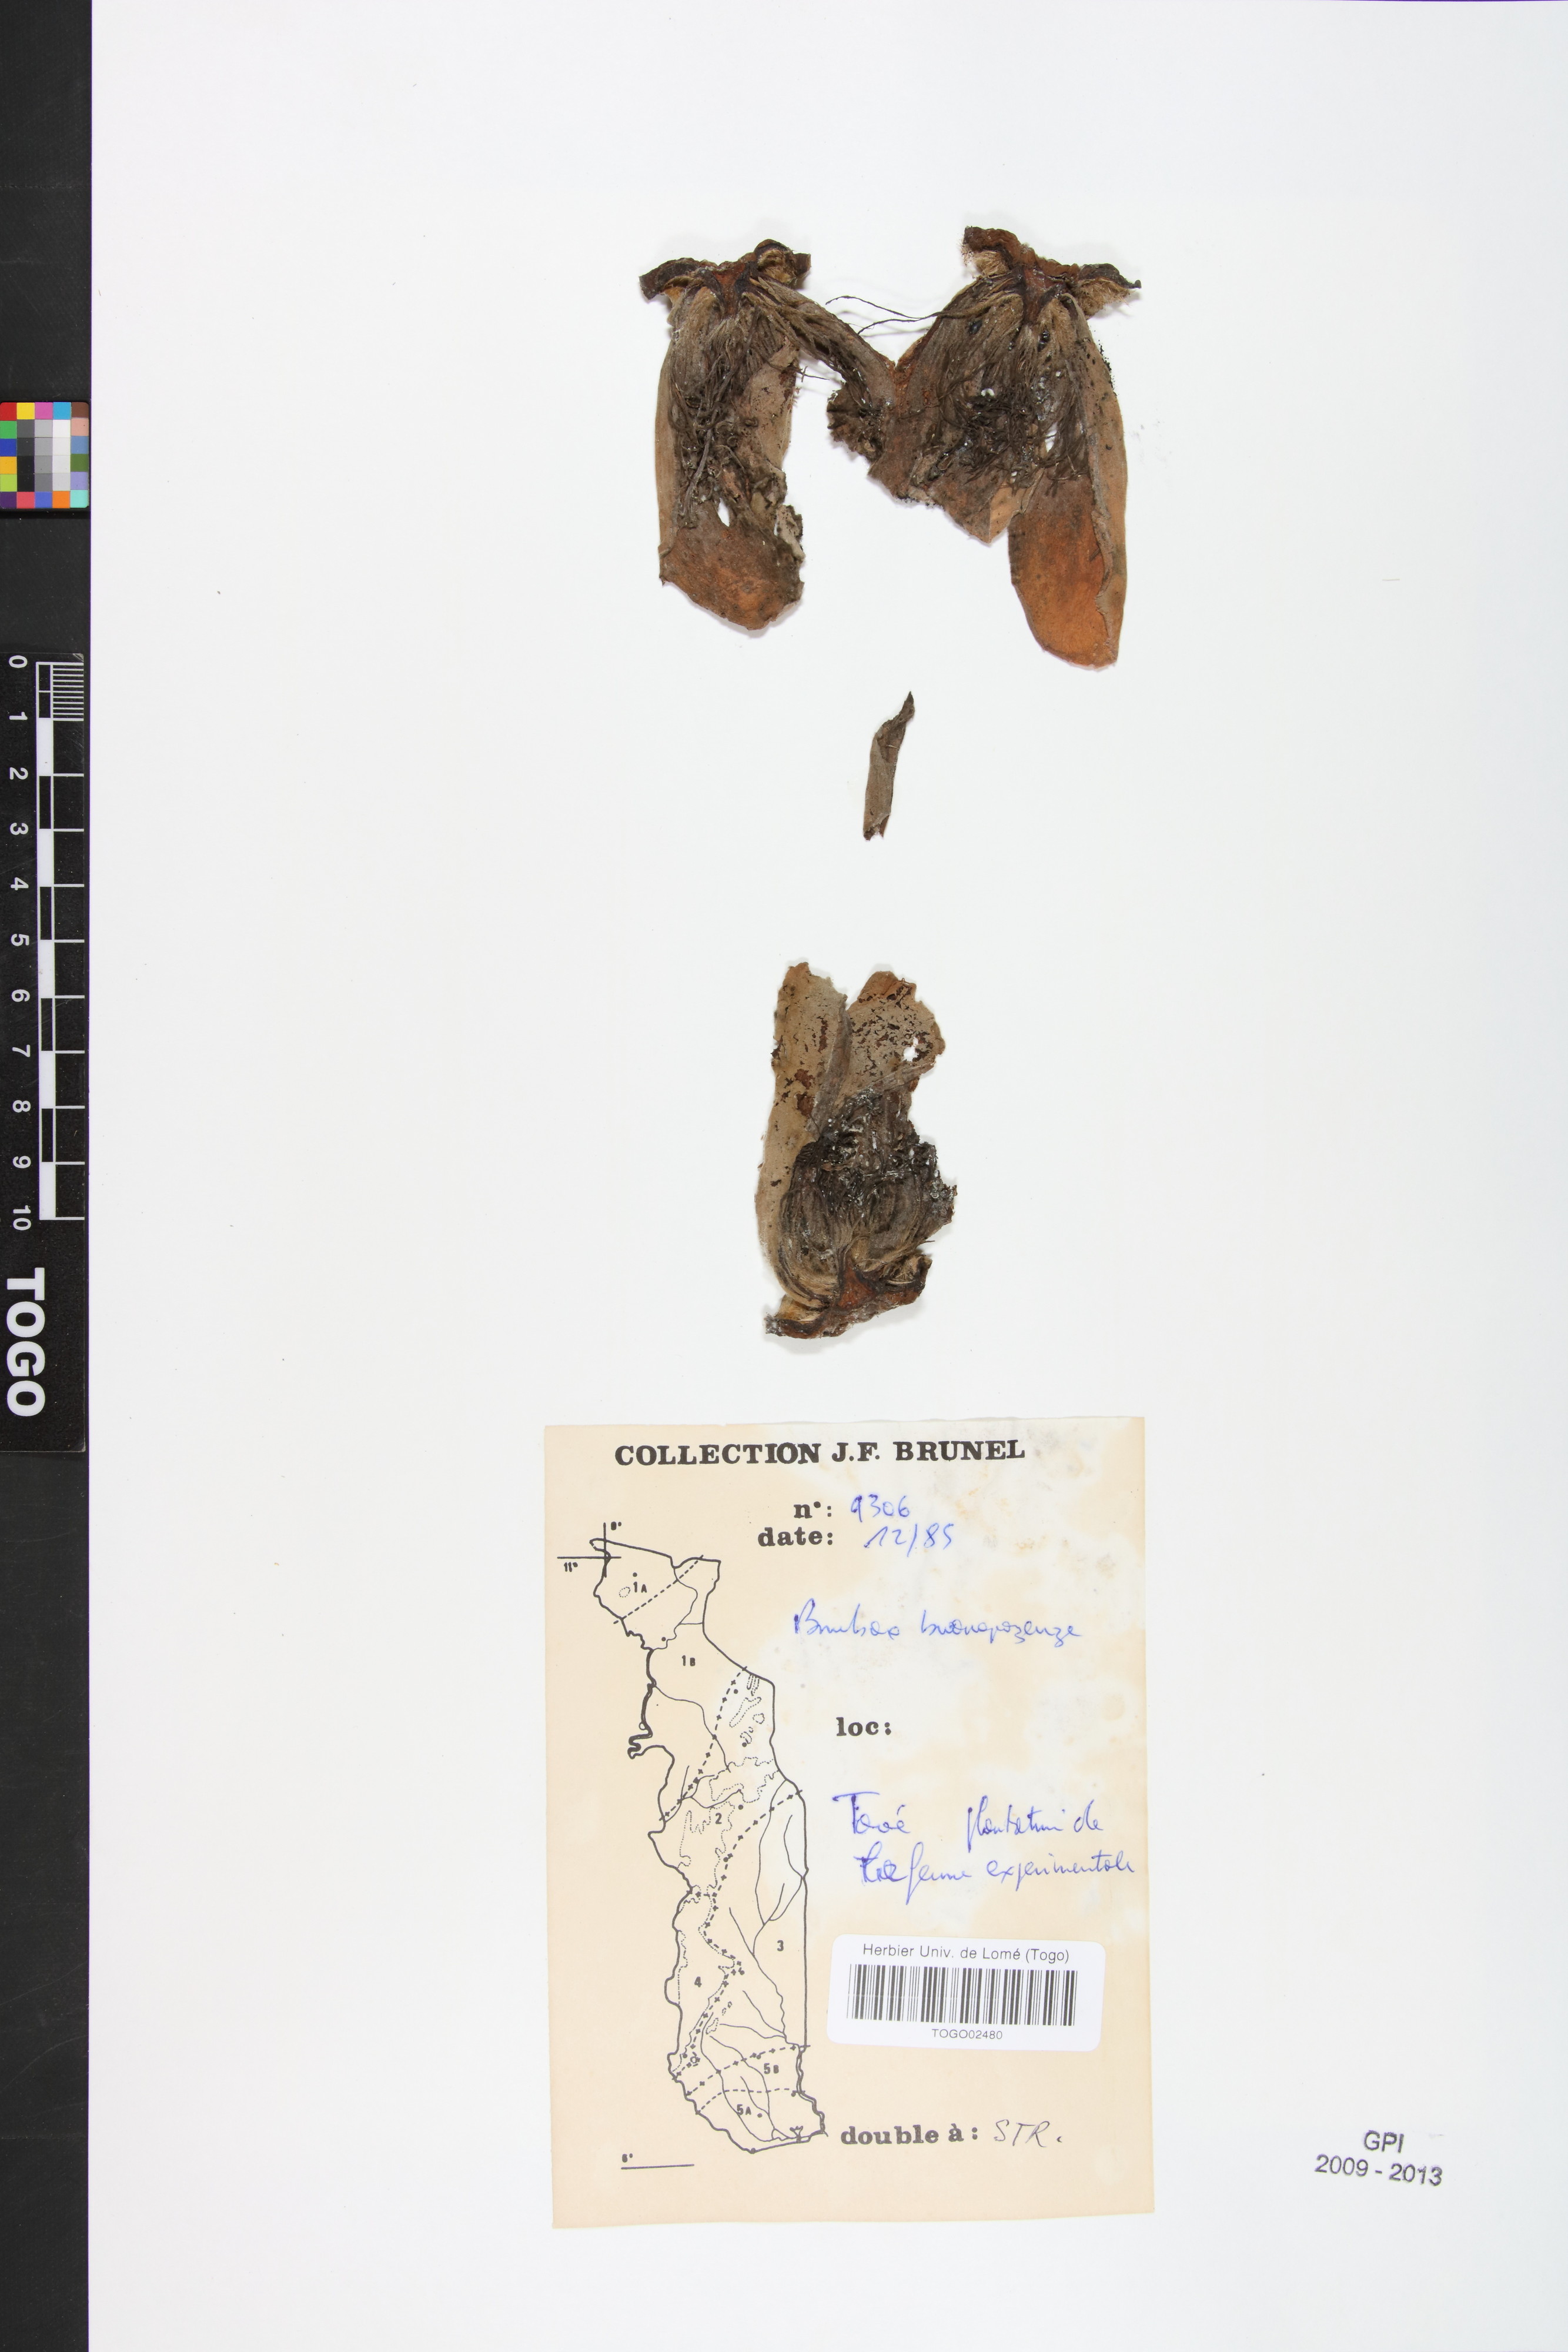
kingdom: Plantae
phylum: Tracheophyta
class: Magnoliopsida
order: Malvales
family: Malvaceae
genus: Bombax
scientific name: Bombax buonopozense
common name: Gold coast bombax
